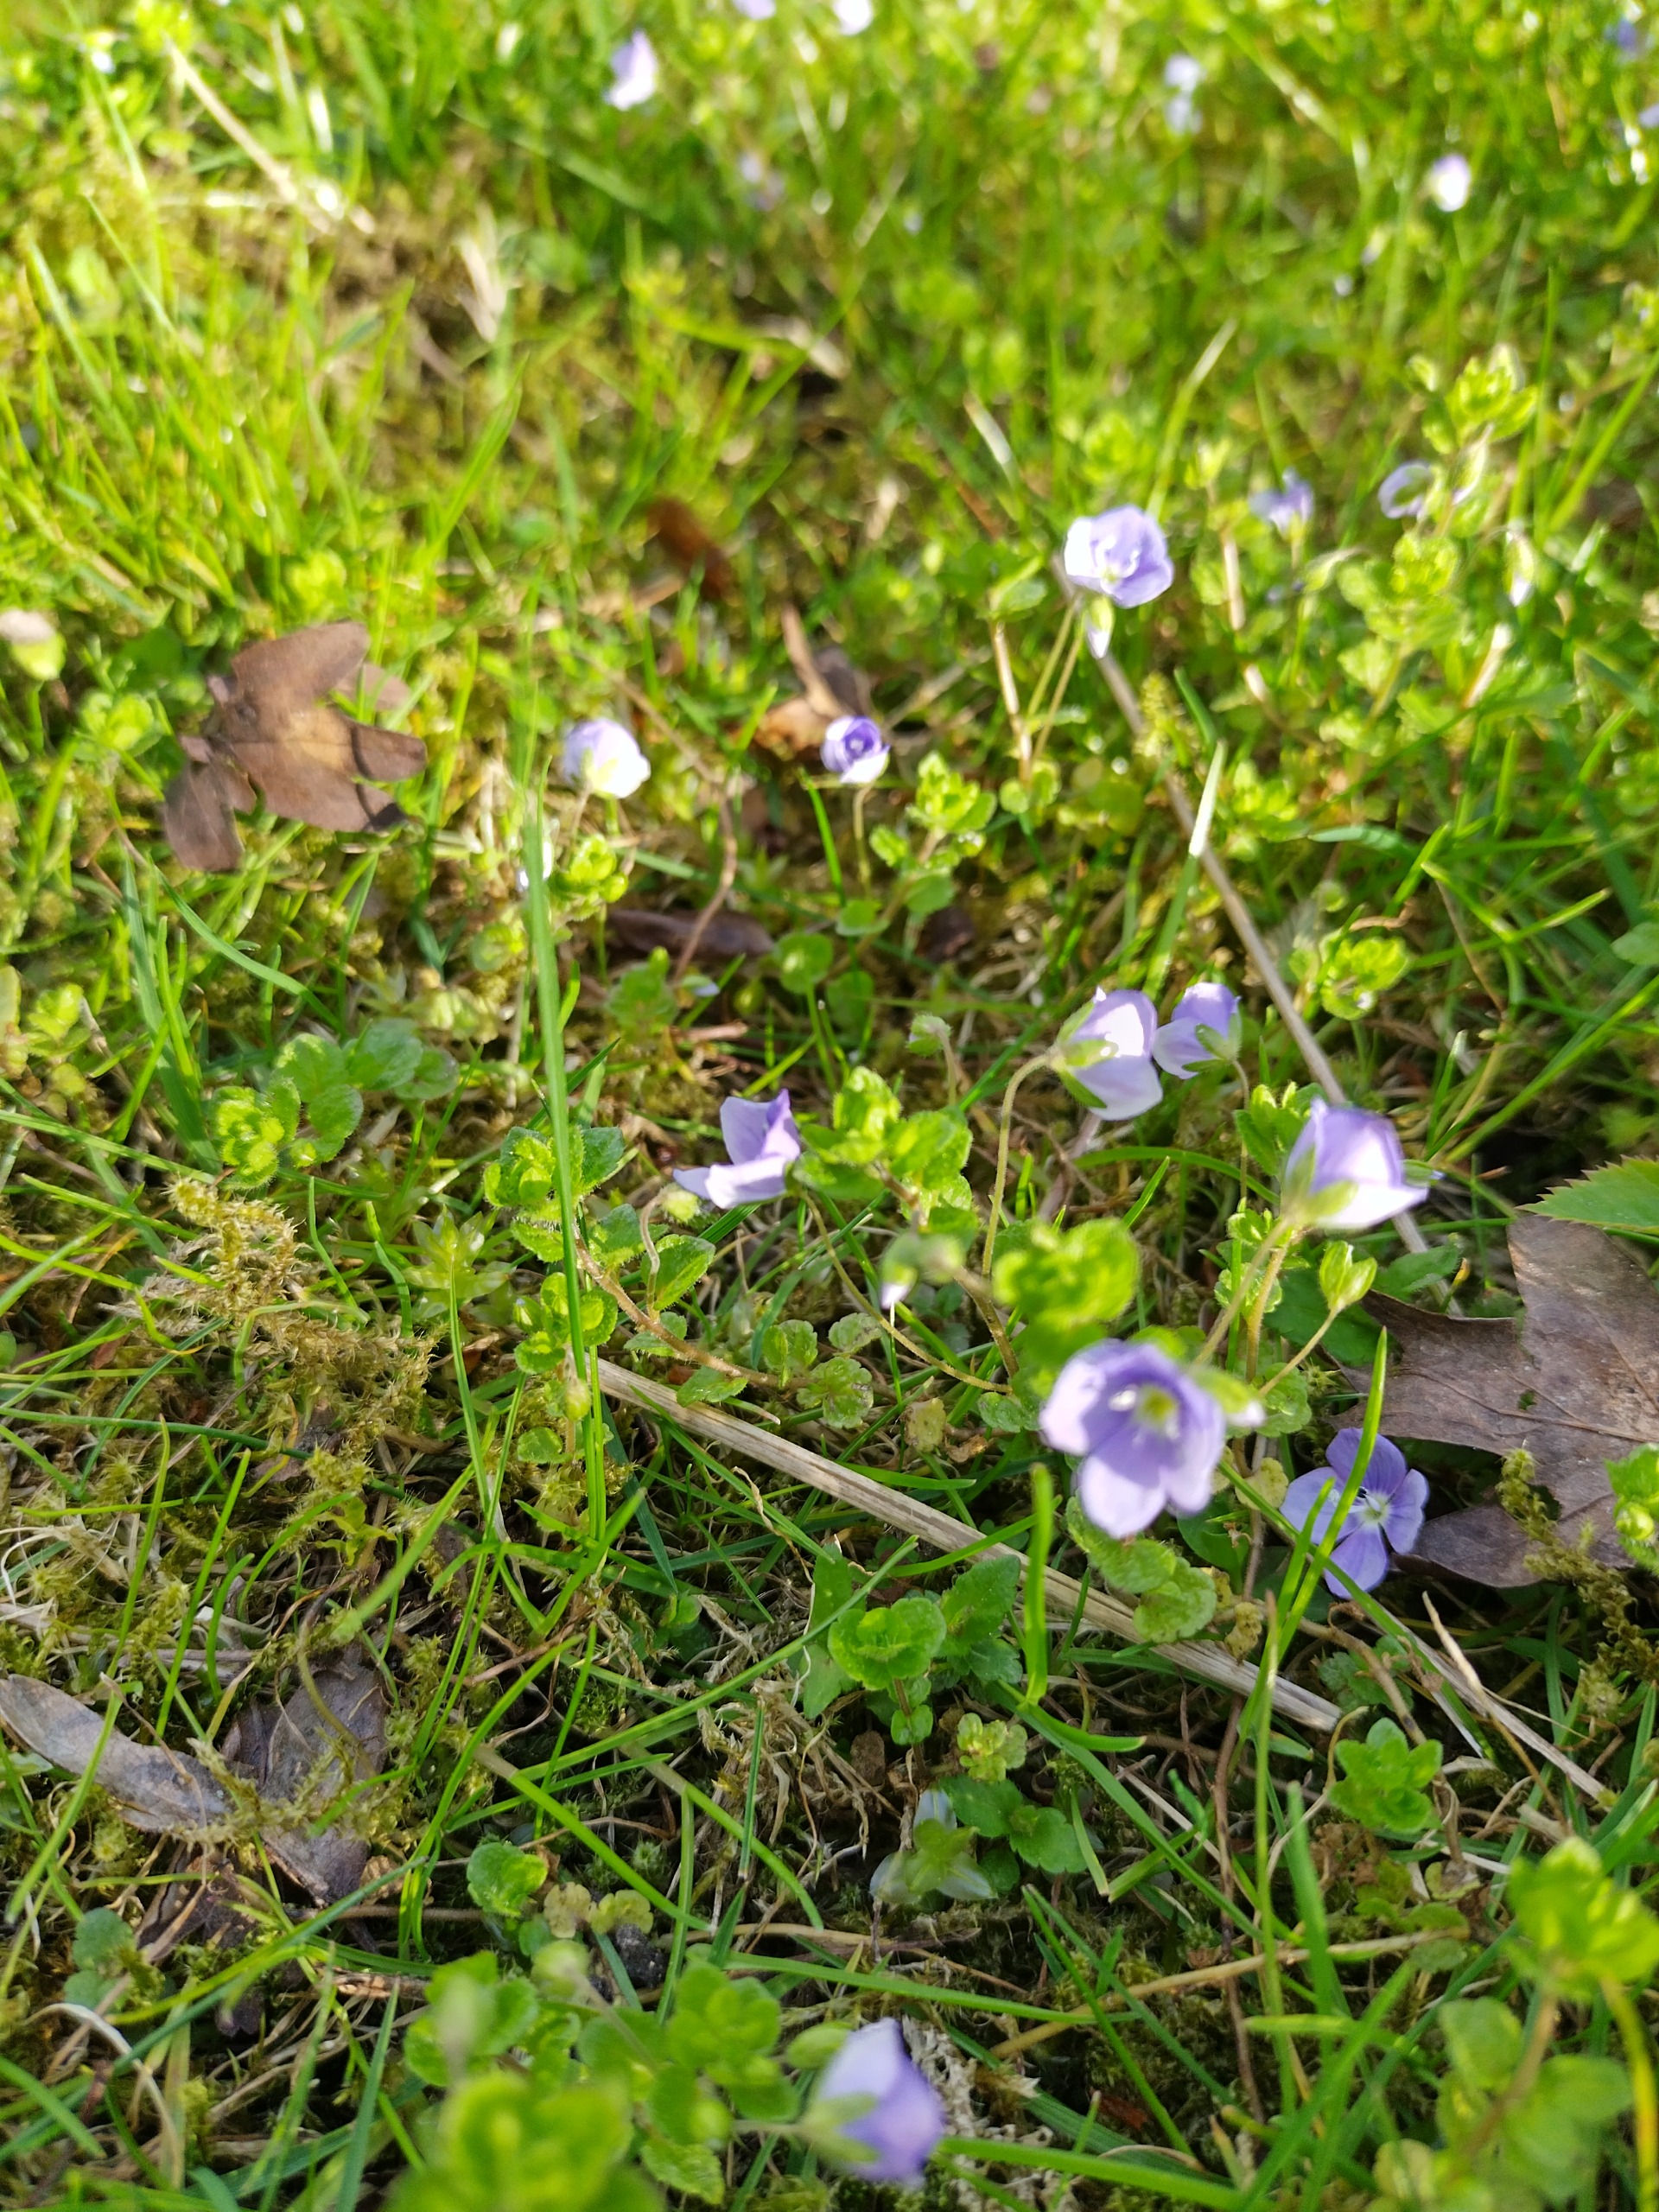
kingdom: Plantae
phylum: Tracheophyta
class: Magnoliopsida
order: Lamiales
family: Plantaginaceae
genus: Veronica
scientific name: Veronica filiformis
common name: Tråd-ærenpris
